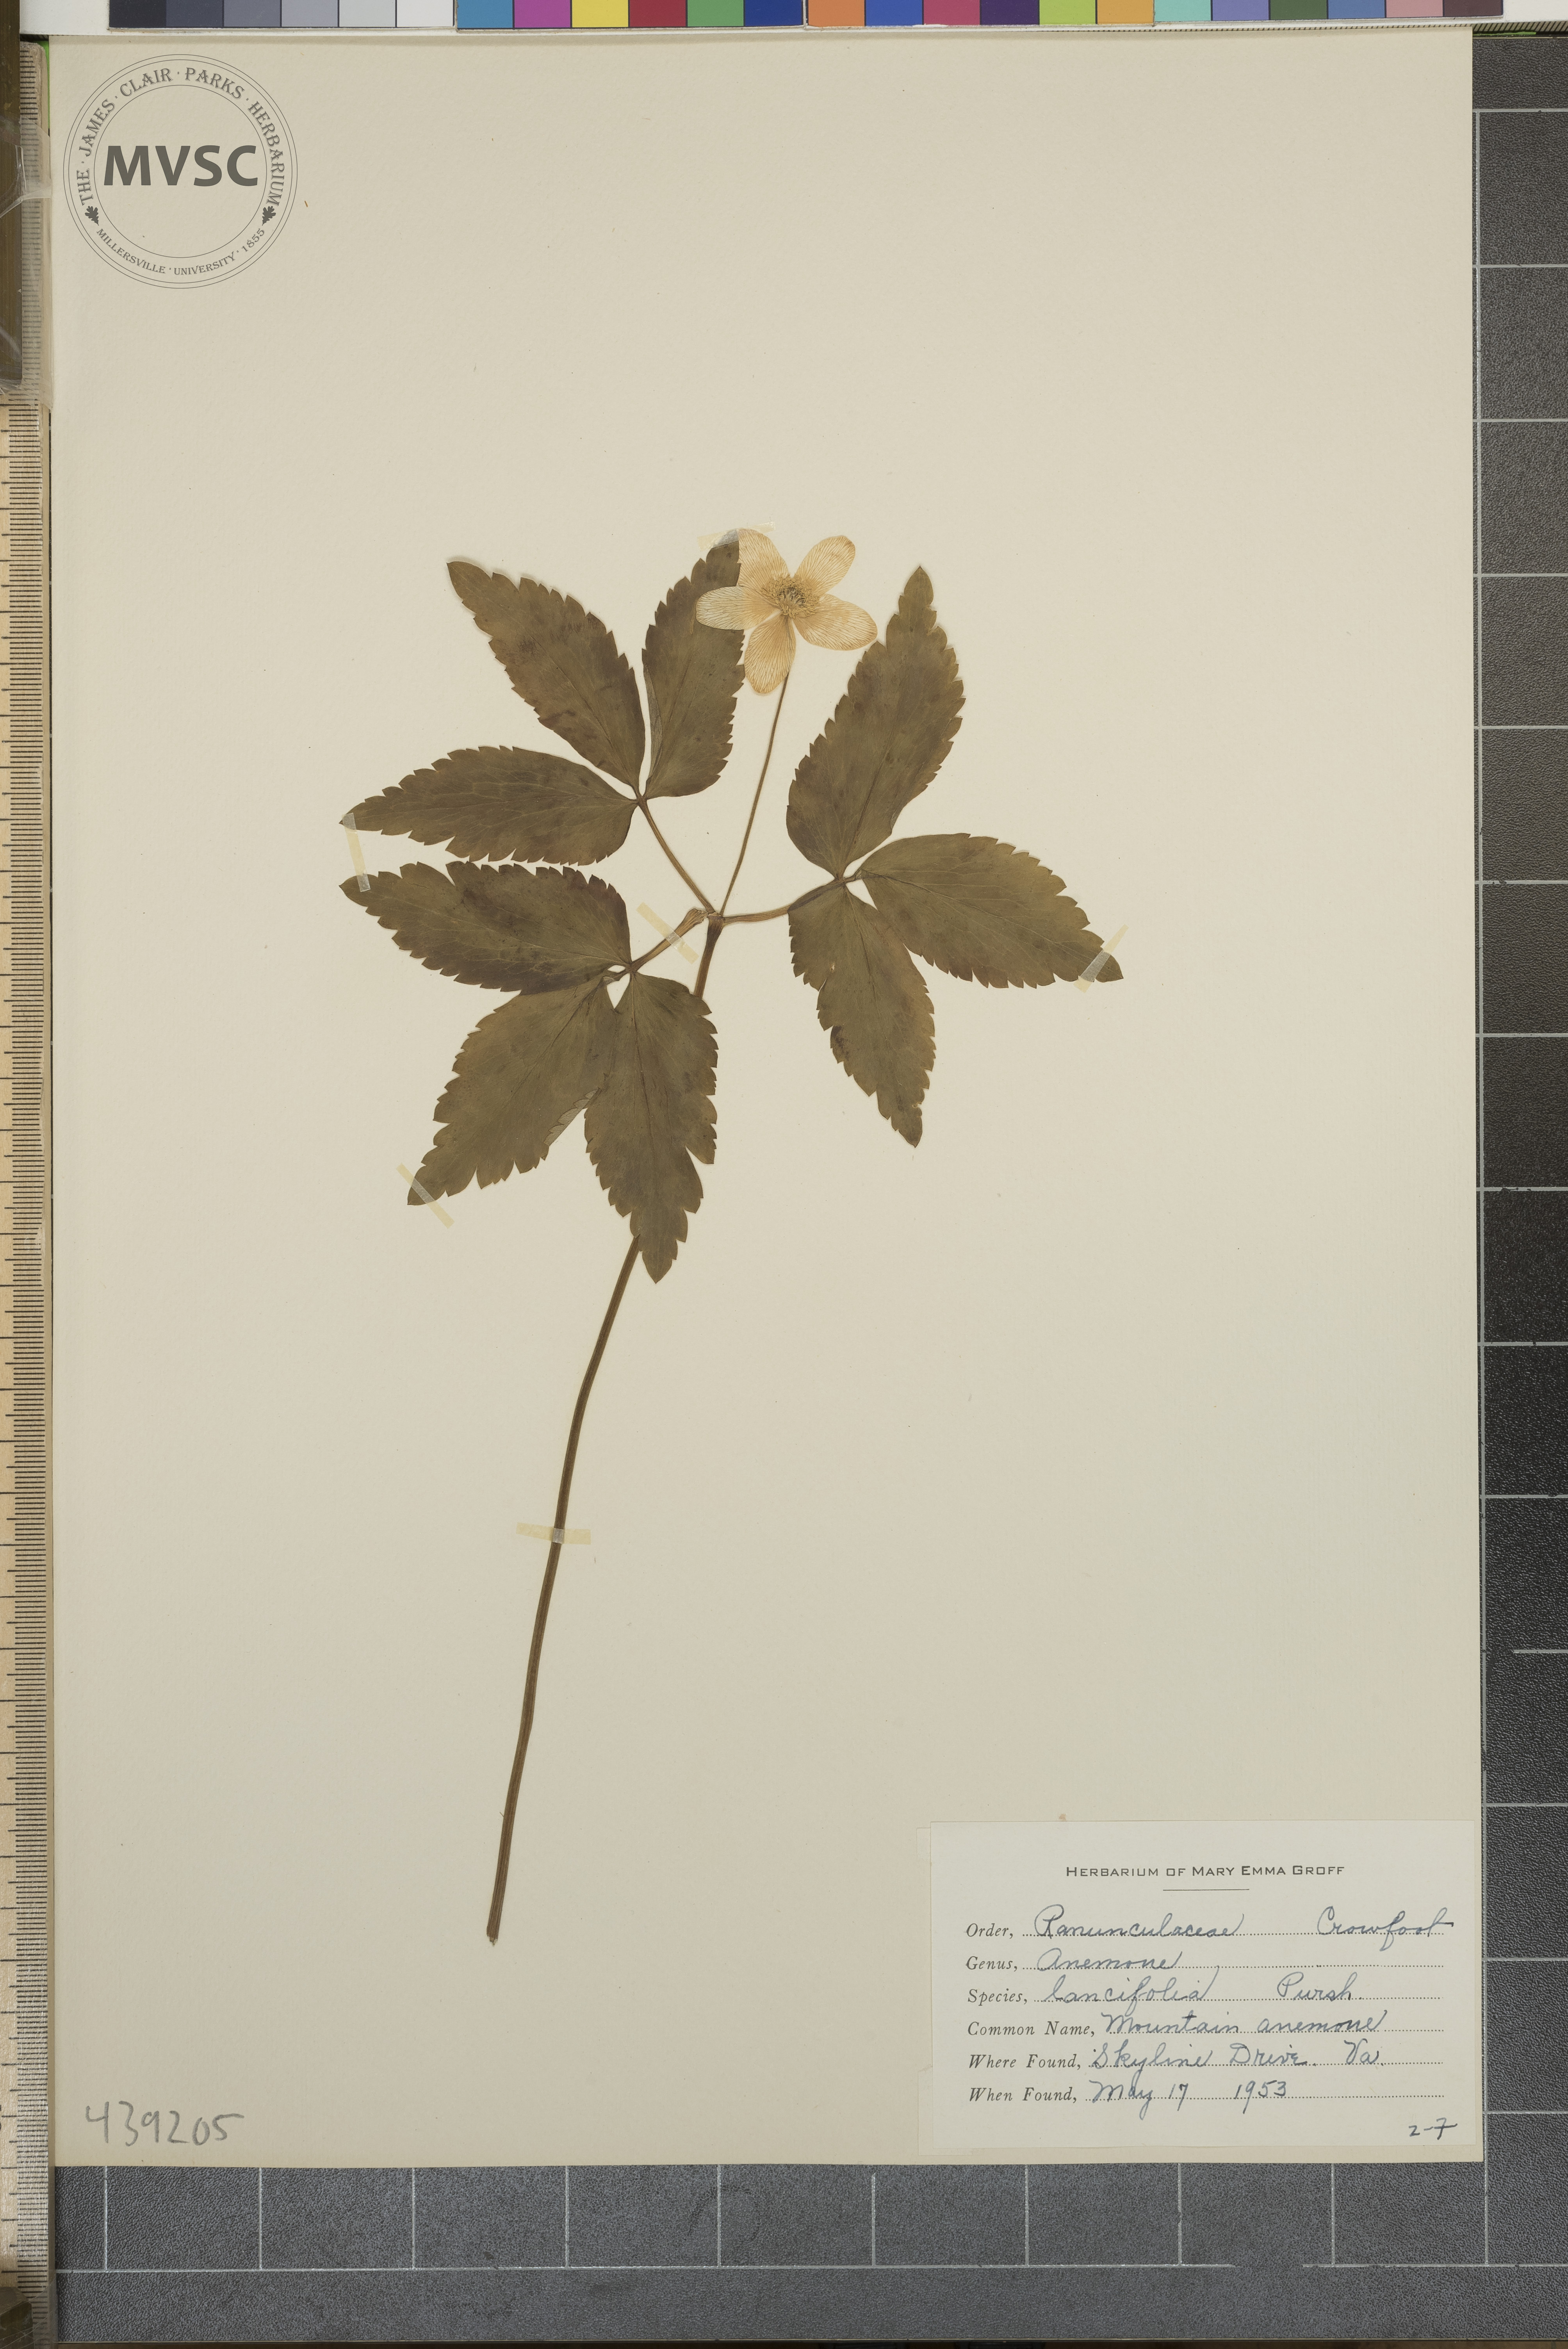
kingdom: Plantae
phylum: Tracheophyta
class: Magnoliopsida
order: Ranunculales
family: Ranunculaceae
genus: Anemone
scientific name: Anemone lancifolia
